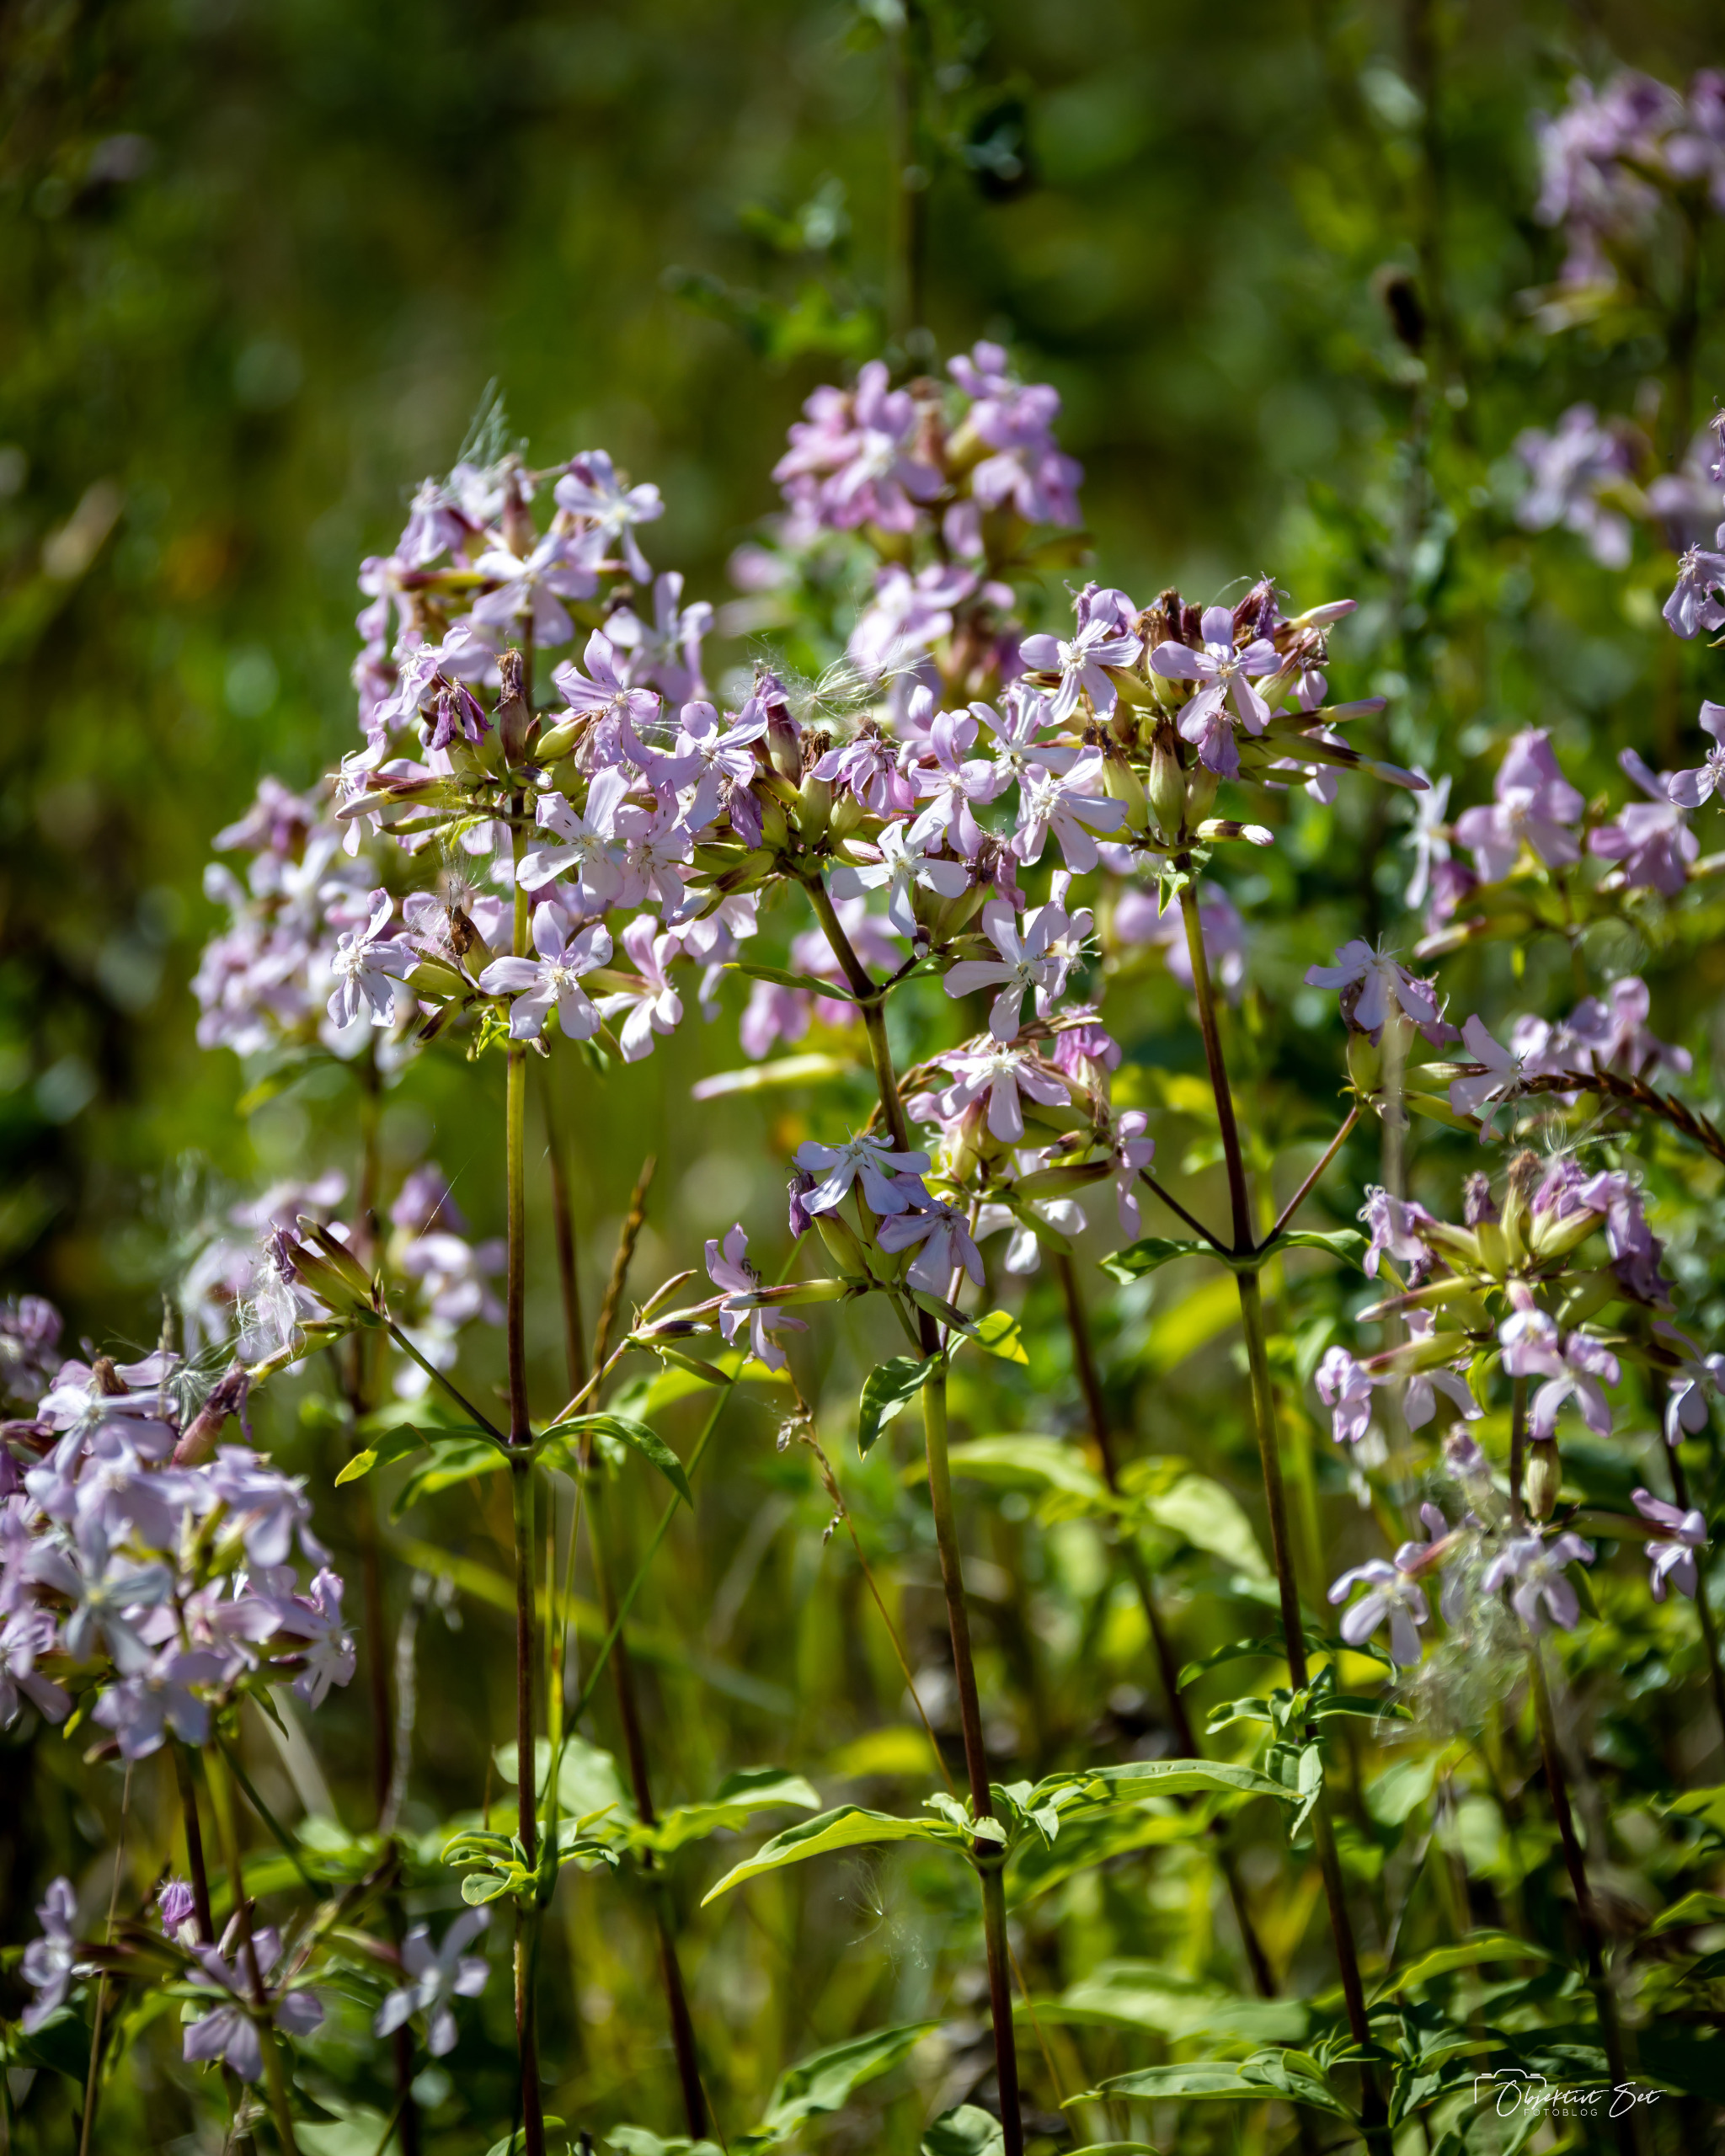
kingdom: Plantae
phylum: Tracheophyta
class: Magnoliopsida
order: Caryophyllales
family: Caryophyllaceae
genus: Saponaria
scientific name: Saponaria officinalis
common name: Sæbeurt
